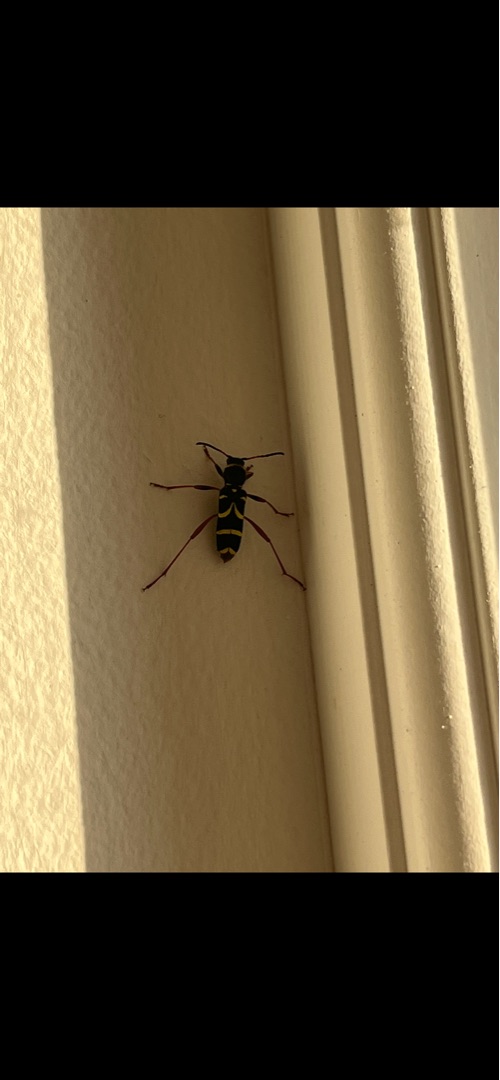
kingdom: Animalia
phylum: Arthropoda
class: Insecta
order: Coleoptera
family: Cerambycidae
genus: Clytus
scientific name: Clytus arietis
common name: Lille hvepsebuk
